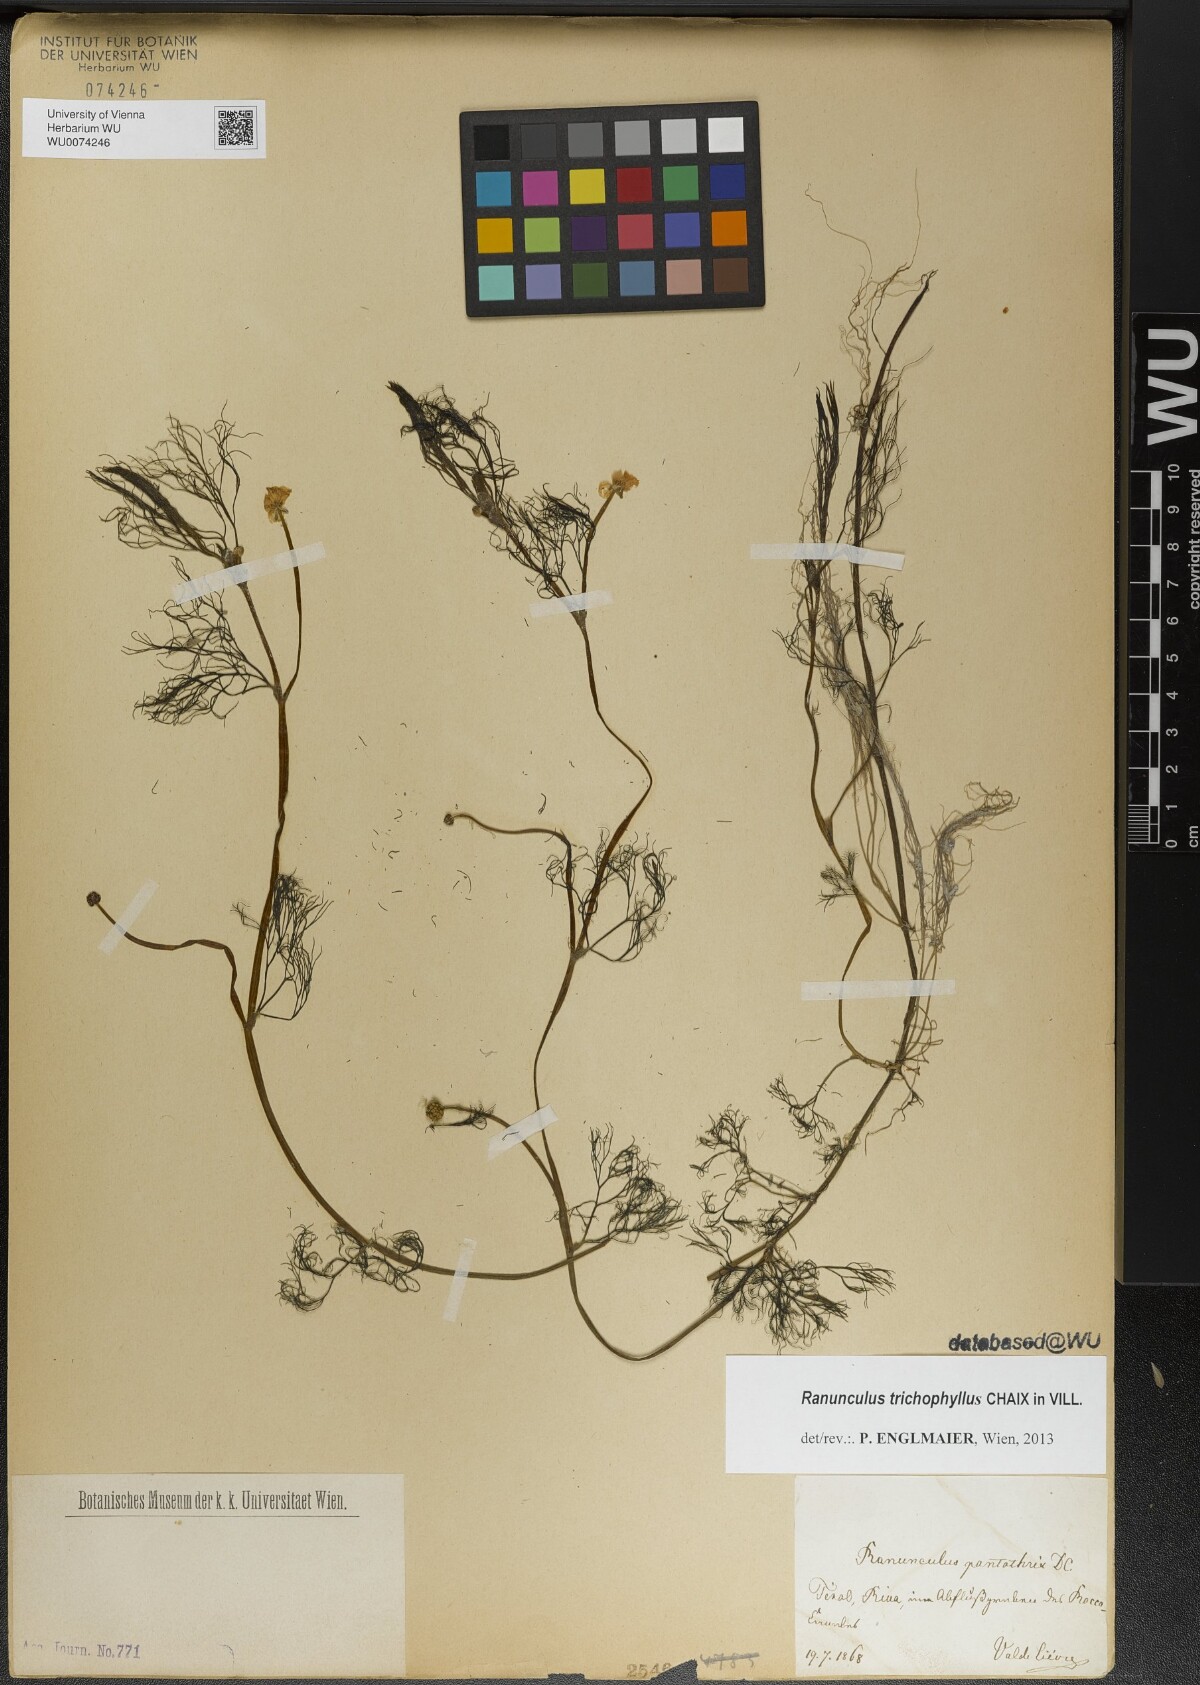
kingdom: Plantae
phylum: Tracheophyta
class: Magnoliopsida
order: Ranunculales
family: Ranunculaceae
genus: Ranunculus
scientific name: Ranunculus trichophyllus
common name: Thread-leaved water-crowfoot
